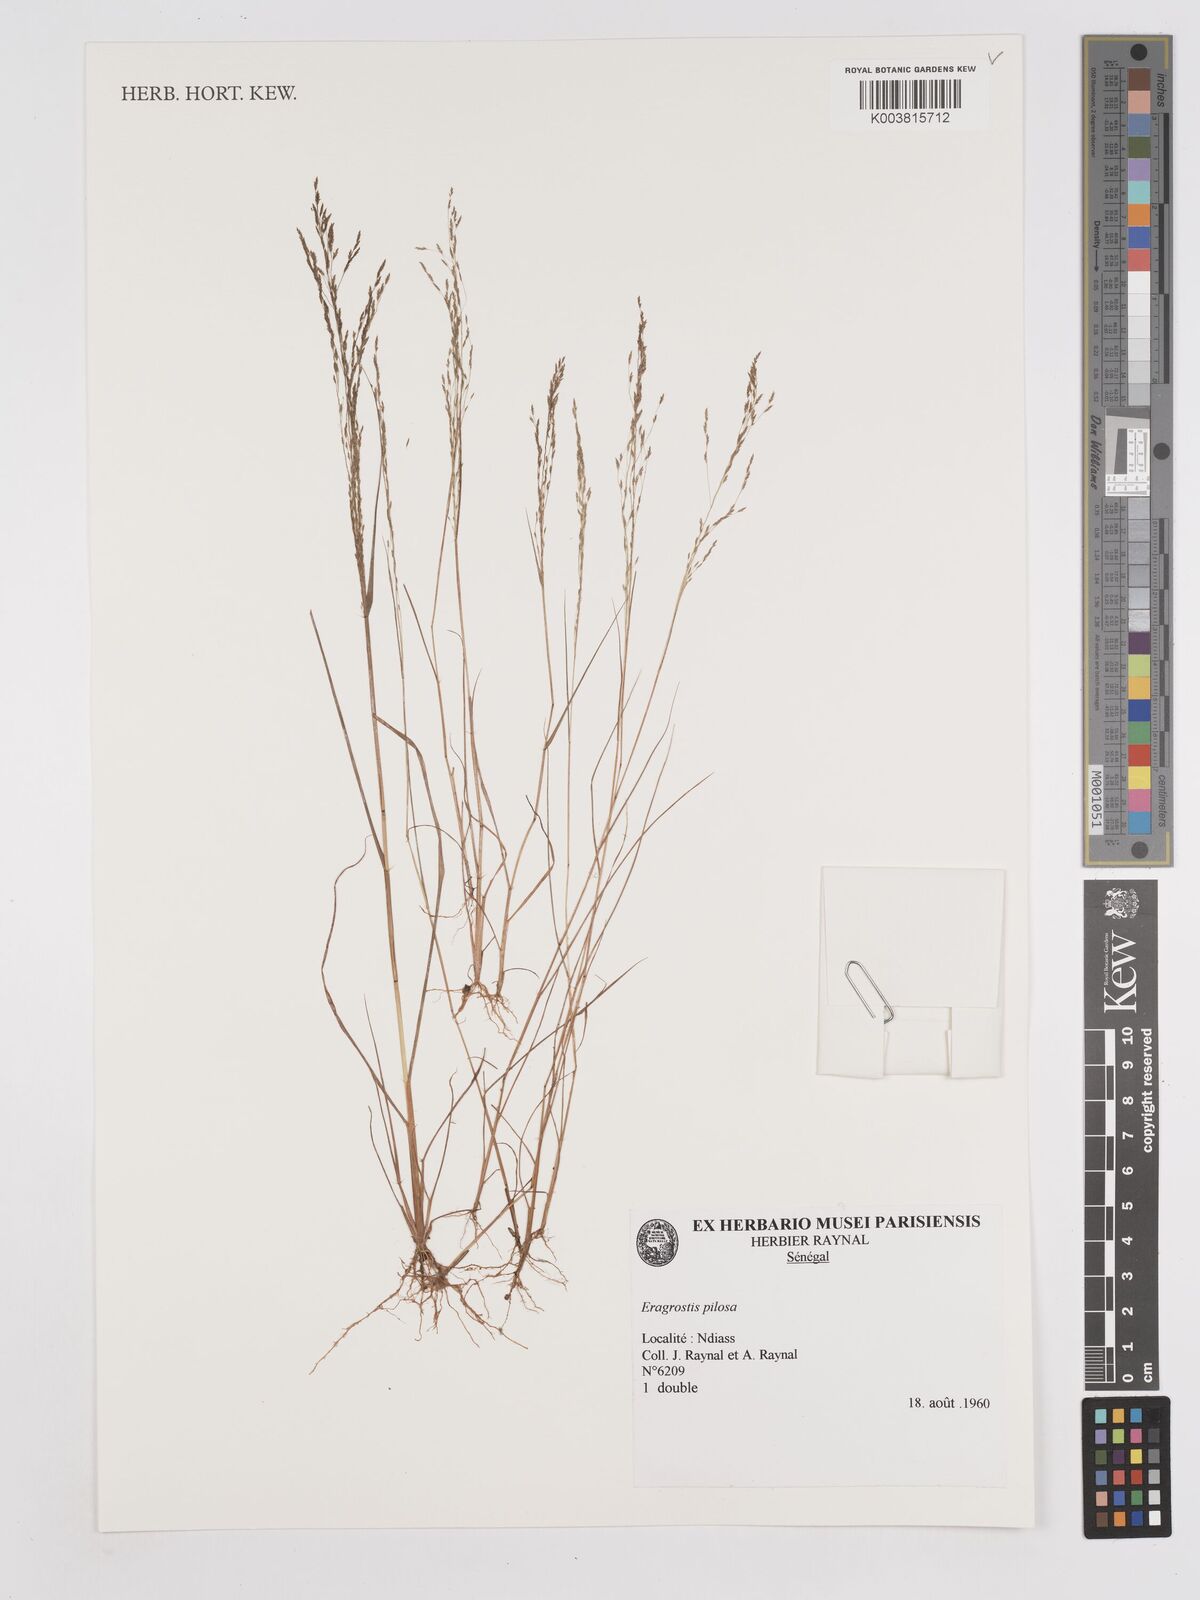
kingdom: Plantae
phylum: Tracheophyta
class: Liliopsida
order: Poales
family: Poaceae
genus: Eragrostis
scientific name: Eragrostis pilosa
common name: Indian lovegrass
